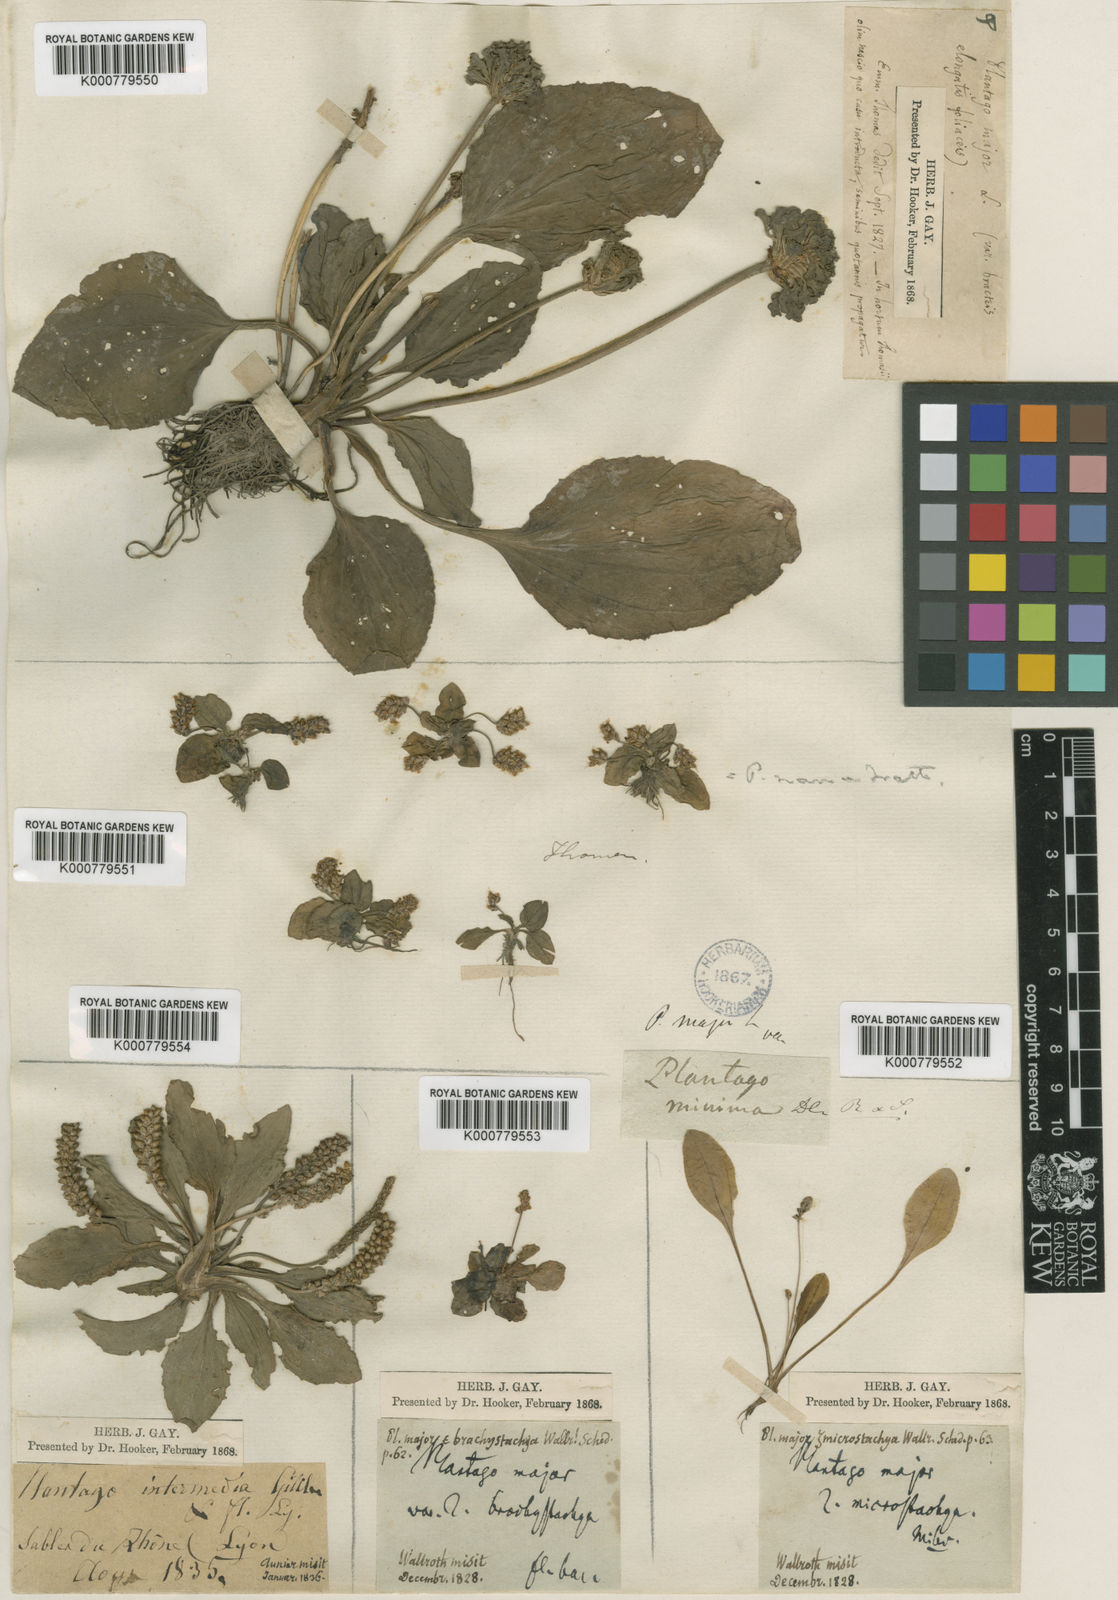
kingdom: Plantae
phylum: Tracheophyta
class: Magnoliopsida
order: Lamiales
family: Plantaginaceae
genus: Plantago
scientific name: Plantago major
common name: Common plantain
